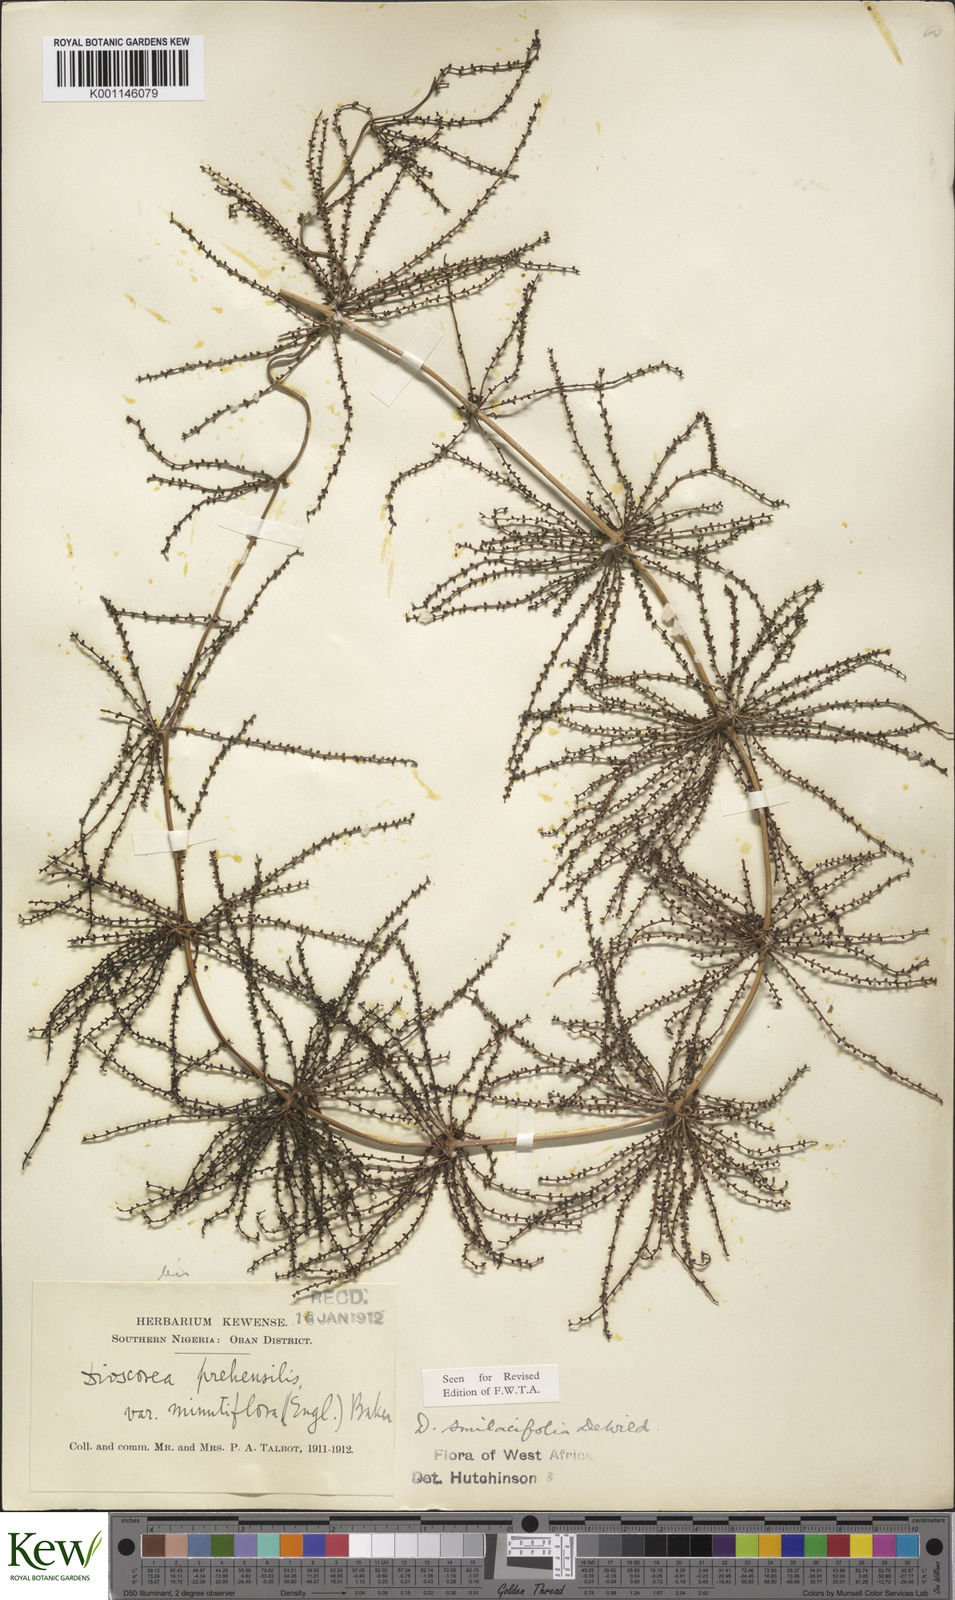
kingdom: Plantae
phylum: Tracheophyta
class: Liliopsida
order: Dioscoreales
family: Dioscoreaceae
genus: Dioscorea
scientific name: Dioscorea smilacifolia
